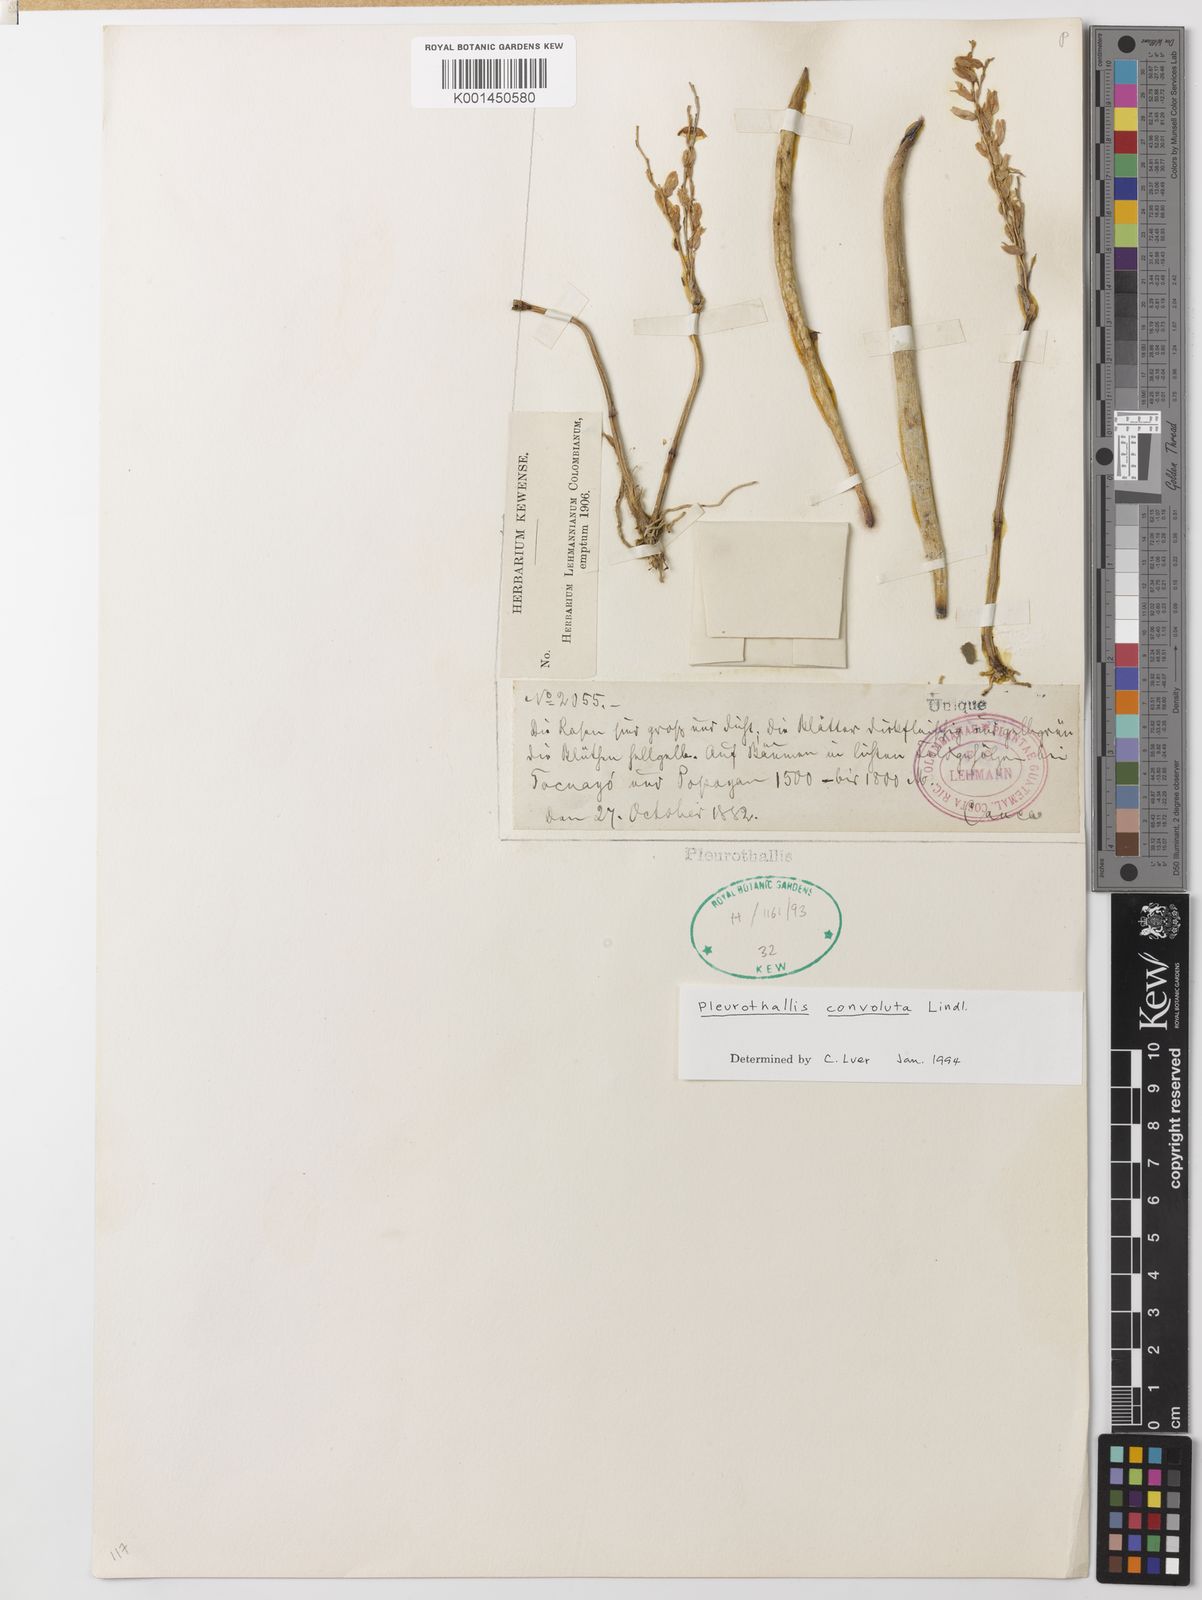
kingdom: Plantae
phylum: Tracheophyta
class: Liliopsida
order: Asparagales
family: Orchidaceae
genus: Stelis
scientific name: Stelis convoluta
